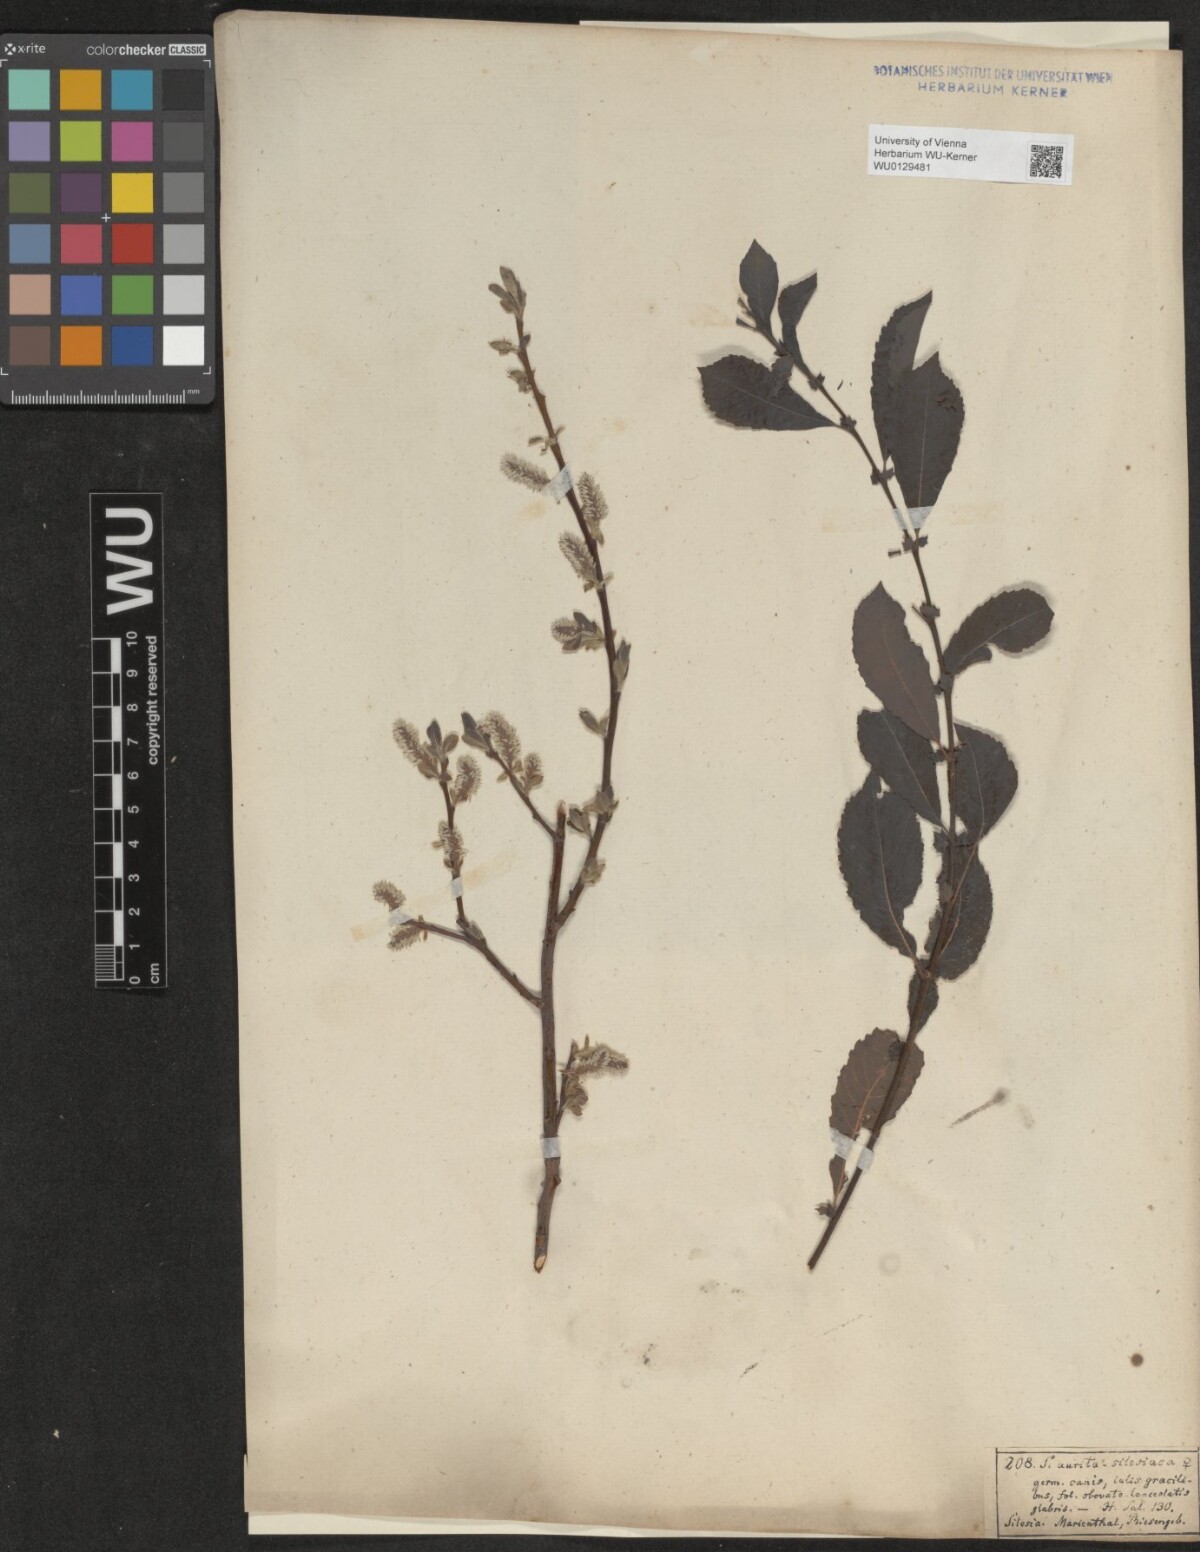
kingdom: Plantae
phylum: Tracheophyta
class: Magnoliopsida
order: Malpighiales
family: Salicaceae
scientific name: Salicaceae
